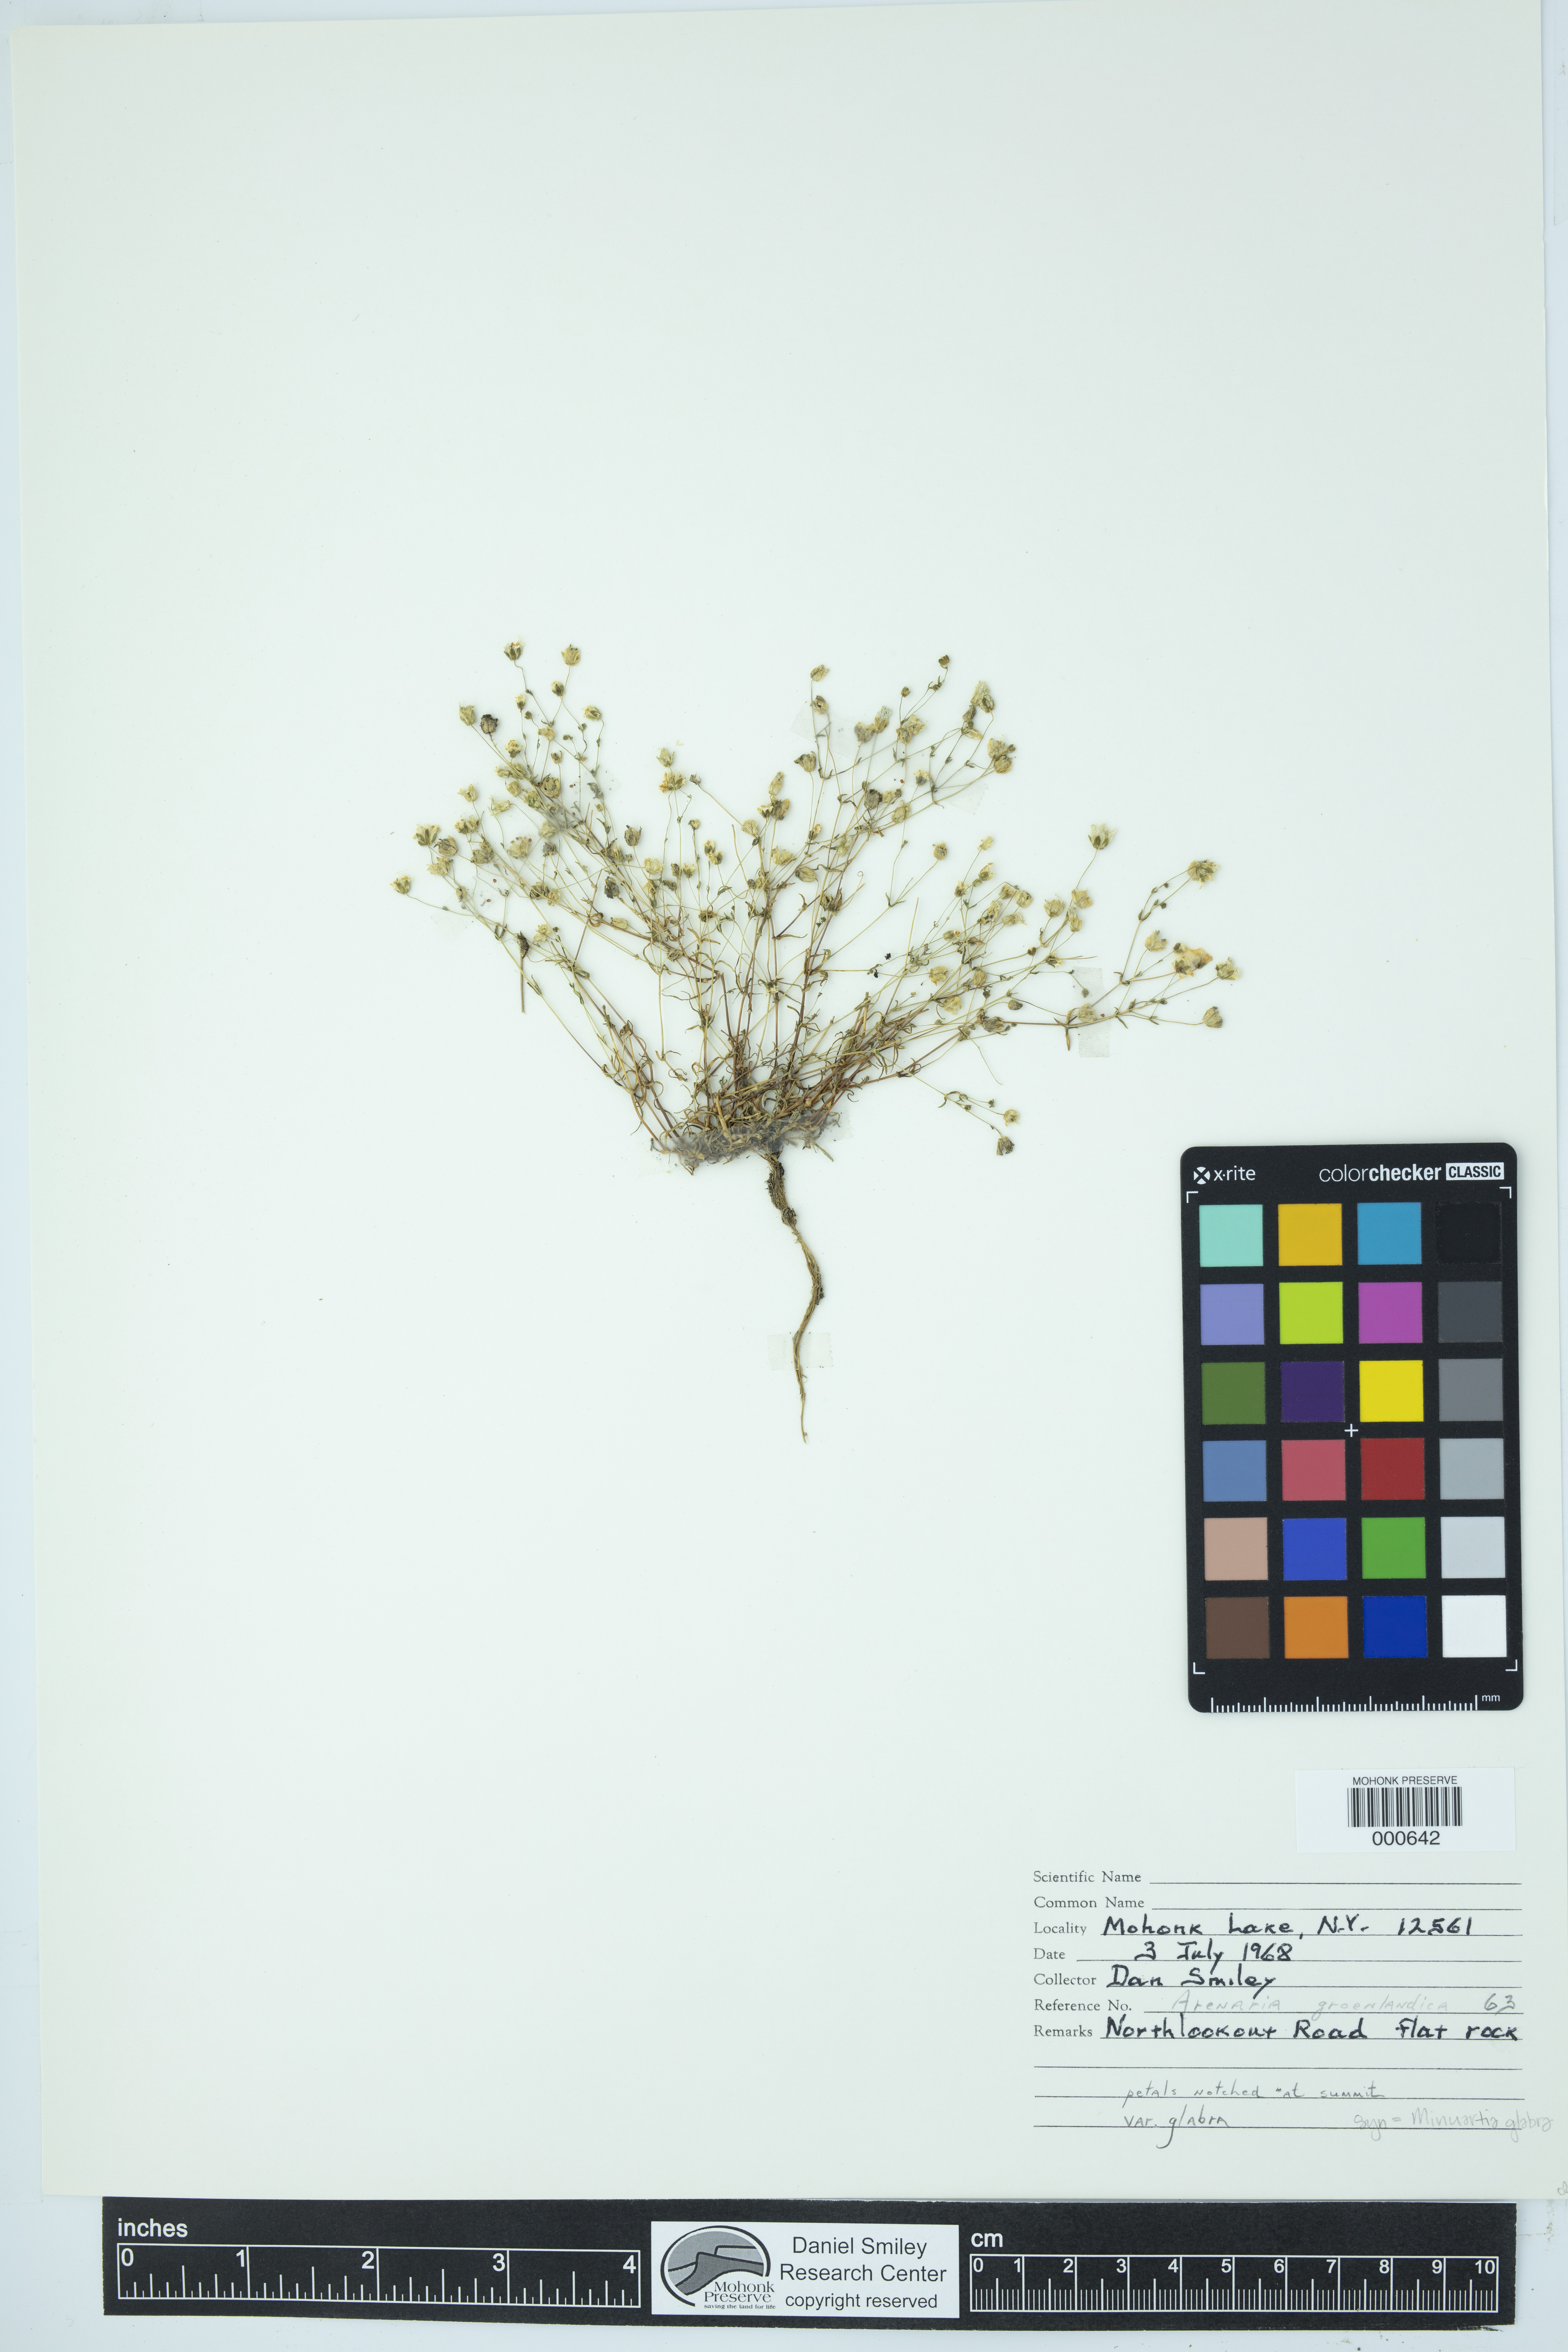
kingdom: Plantae
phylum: Tracheophyta
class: Magnoliopsida
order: Caryophyllales
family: Caryophyllaceae
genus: Geocarpon
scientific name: Geocarpon glabrum
